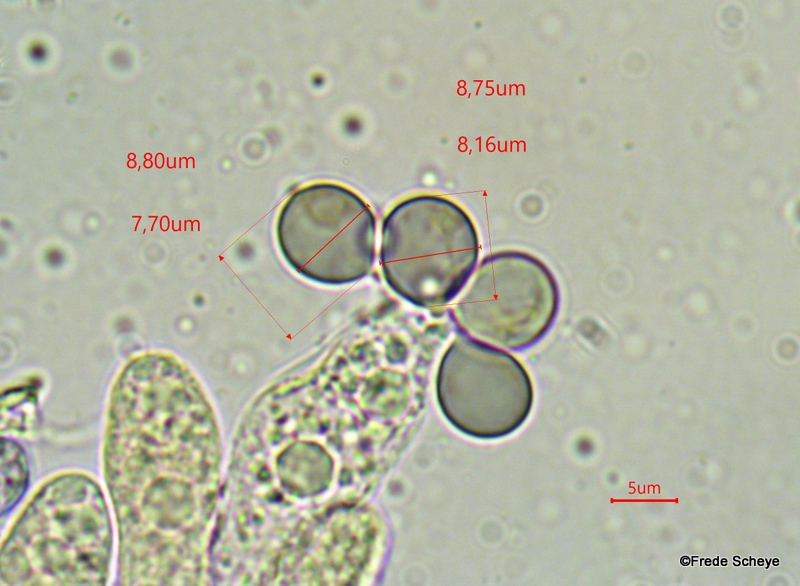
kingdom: Fungi
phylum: Basidiomycota
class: Agaricomycetes
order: Agaricales
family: Amanitaceae
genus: Amanita
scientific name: Amanita citrina
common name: False death-cap
